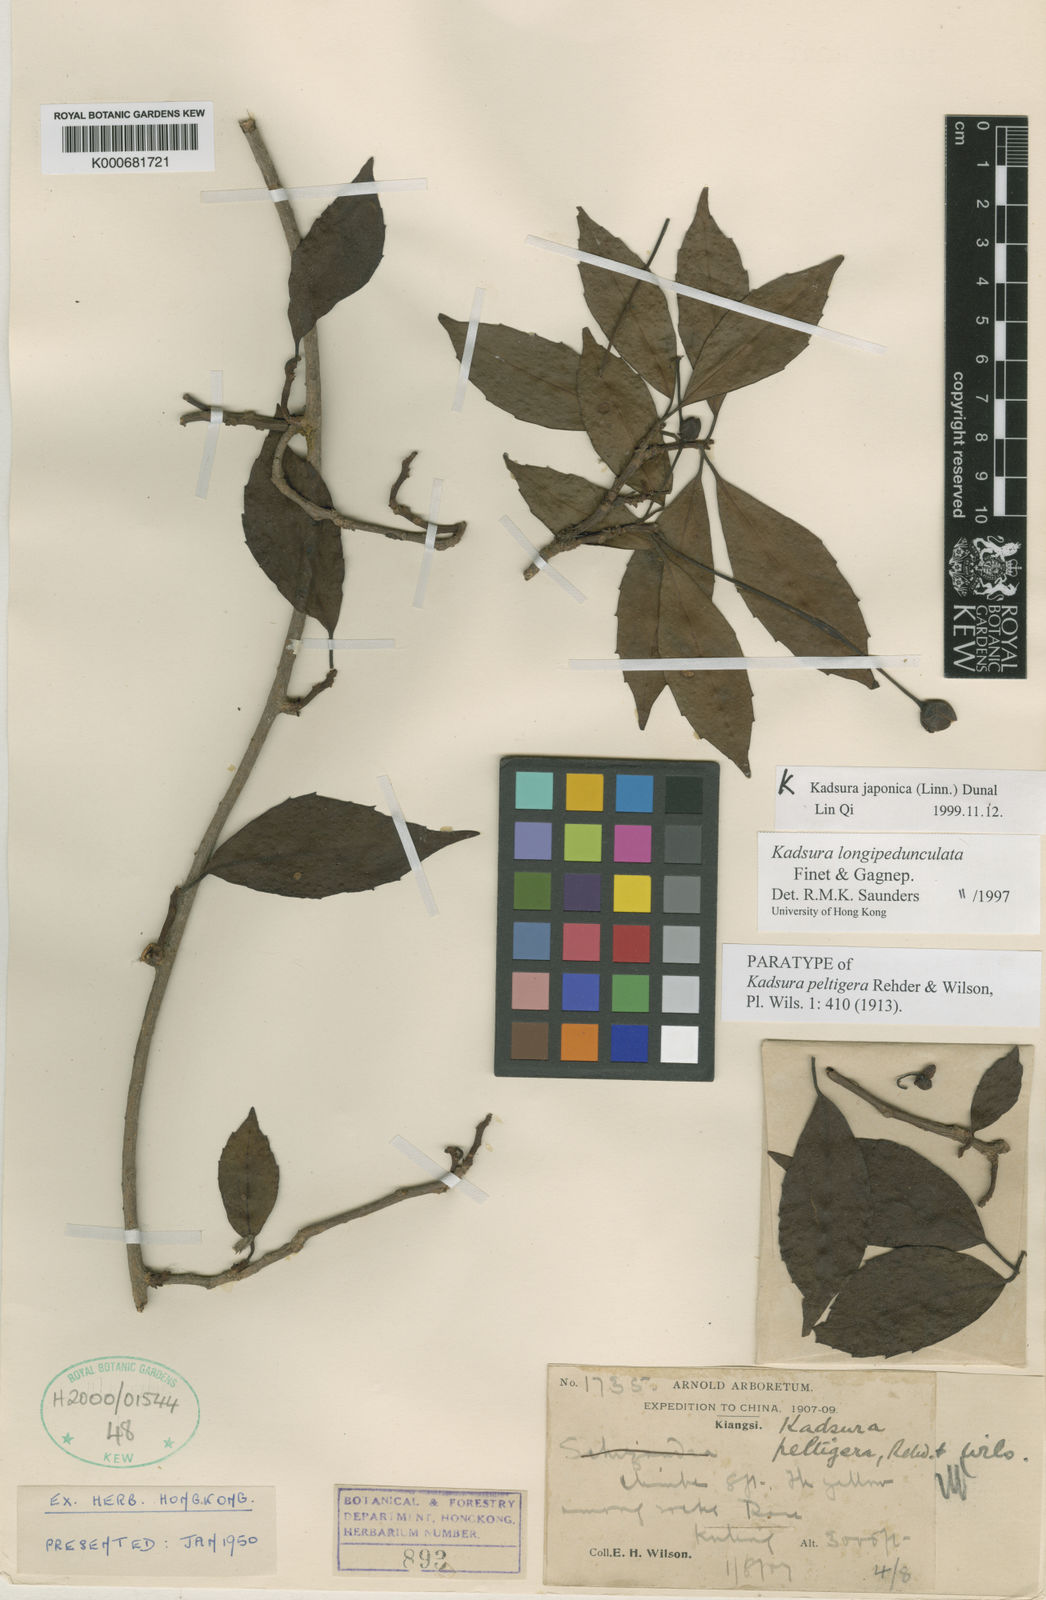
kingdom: Plantae
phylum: Tracheophyta
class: Magnoliopsida
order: Austrobaileyales
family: Schisandraceae
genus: Kadsura
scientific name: Kadsura longipedunculata
